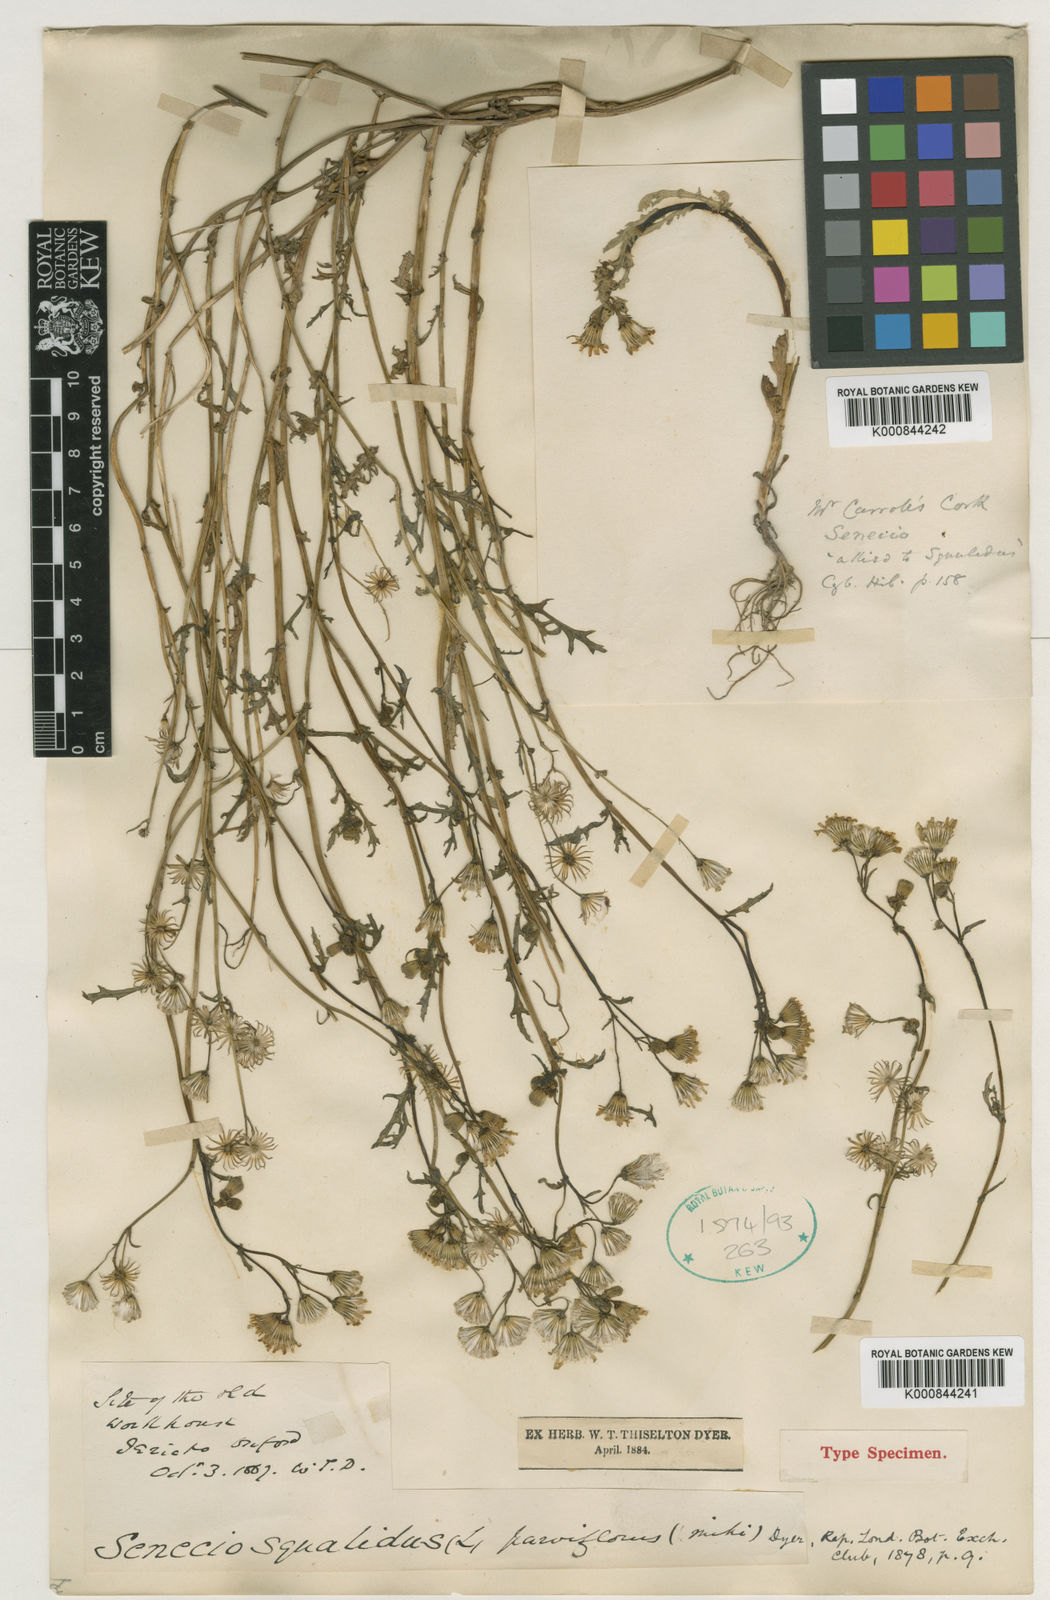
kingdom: Plantae
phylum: Tracheophyta
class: Magnoliopsida
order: Asterales
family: Asteraceae
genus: Senecio
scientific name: Senecio squalidus
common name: Oxford ragwort
